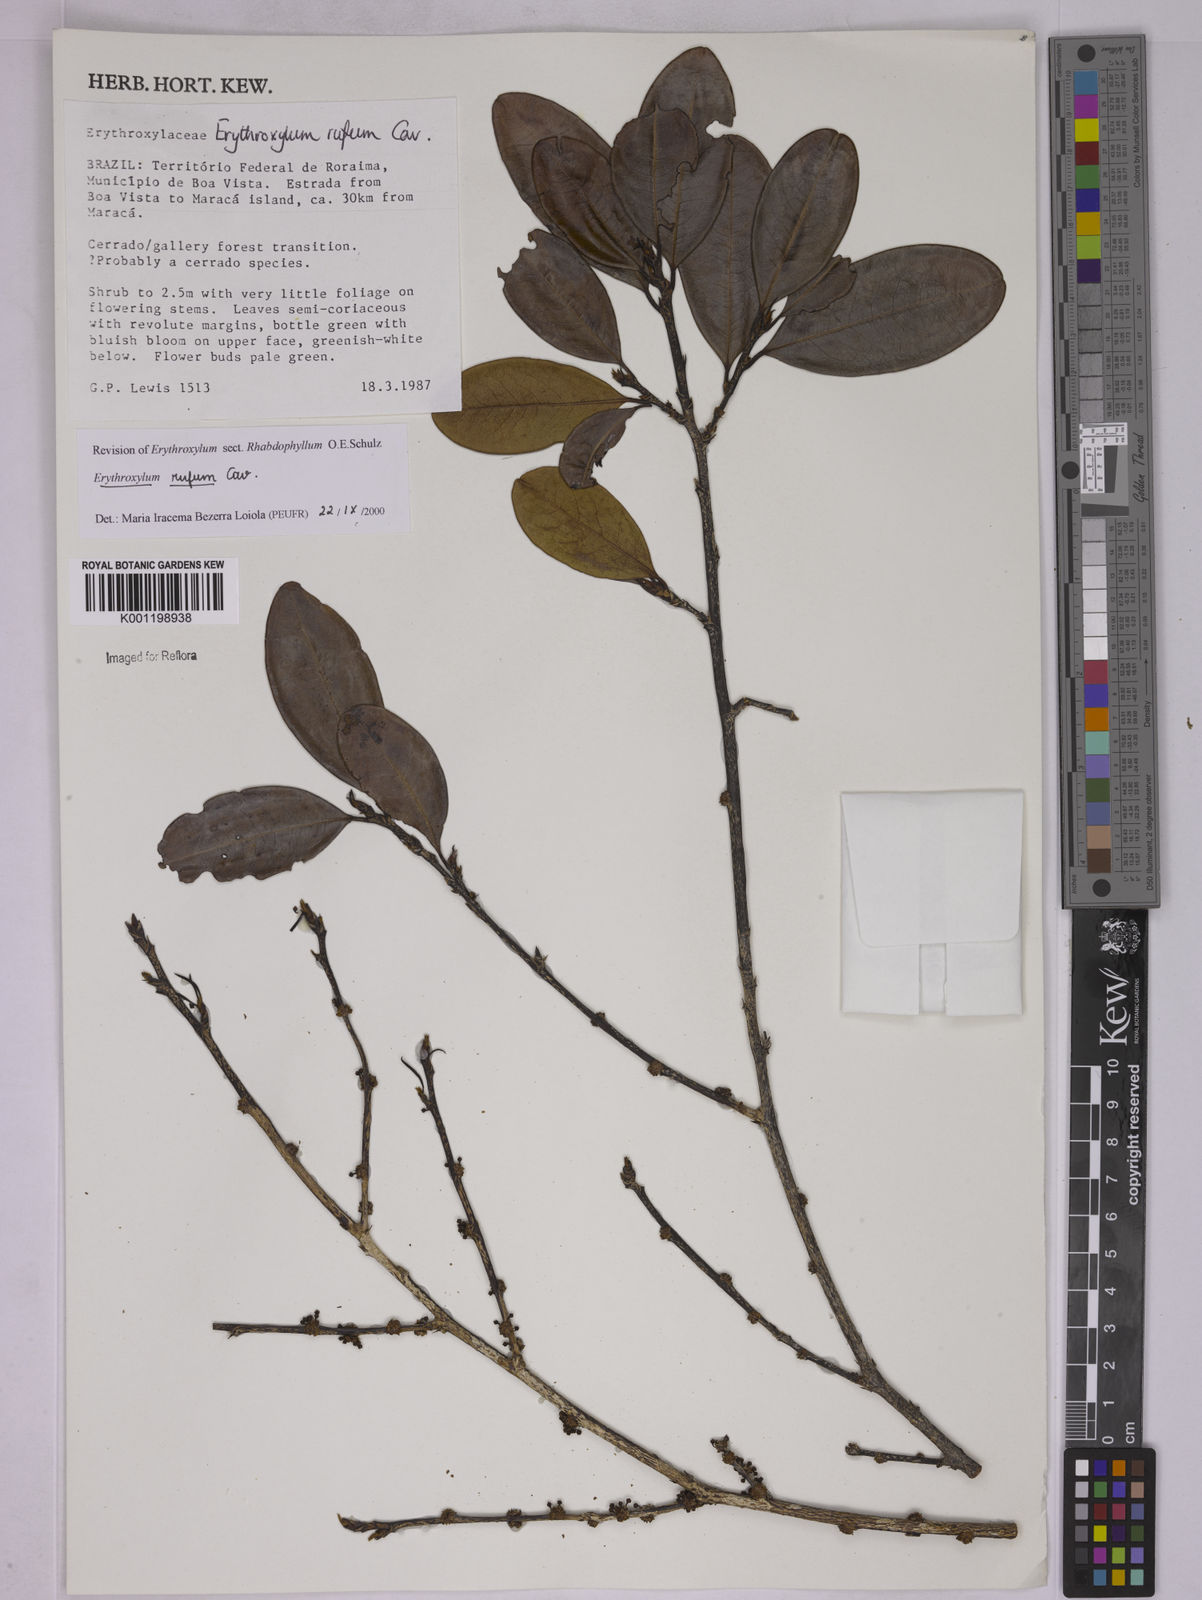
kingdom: Plantae
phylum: Tracheophyta
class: Magnoliopsida
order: Malpighiales
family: Erythroxylaceae
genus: Erythroxylum
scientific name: Erythroxylum rufum
